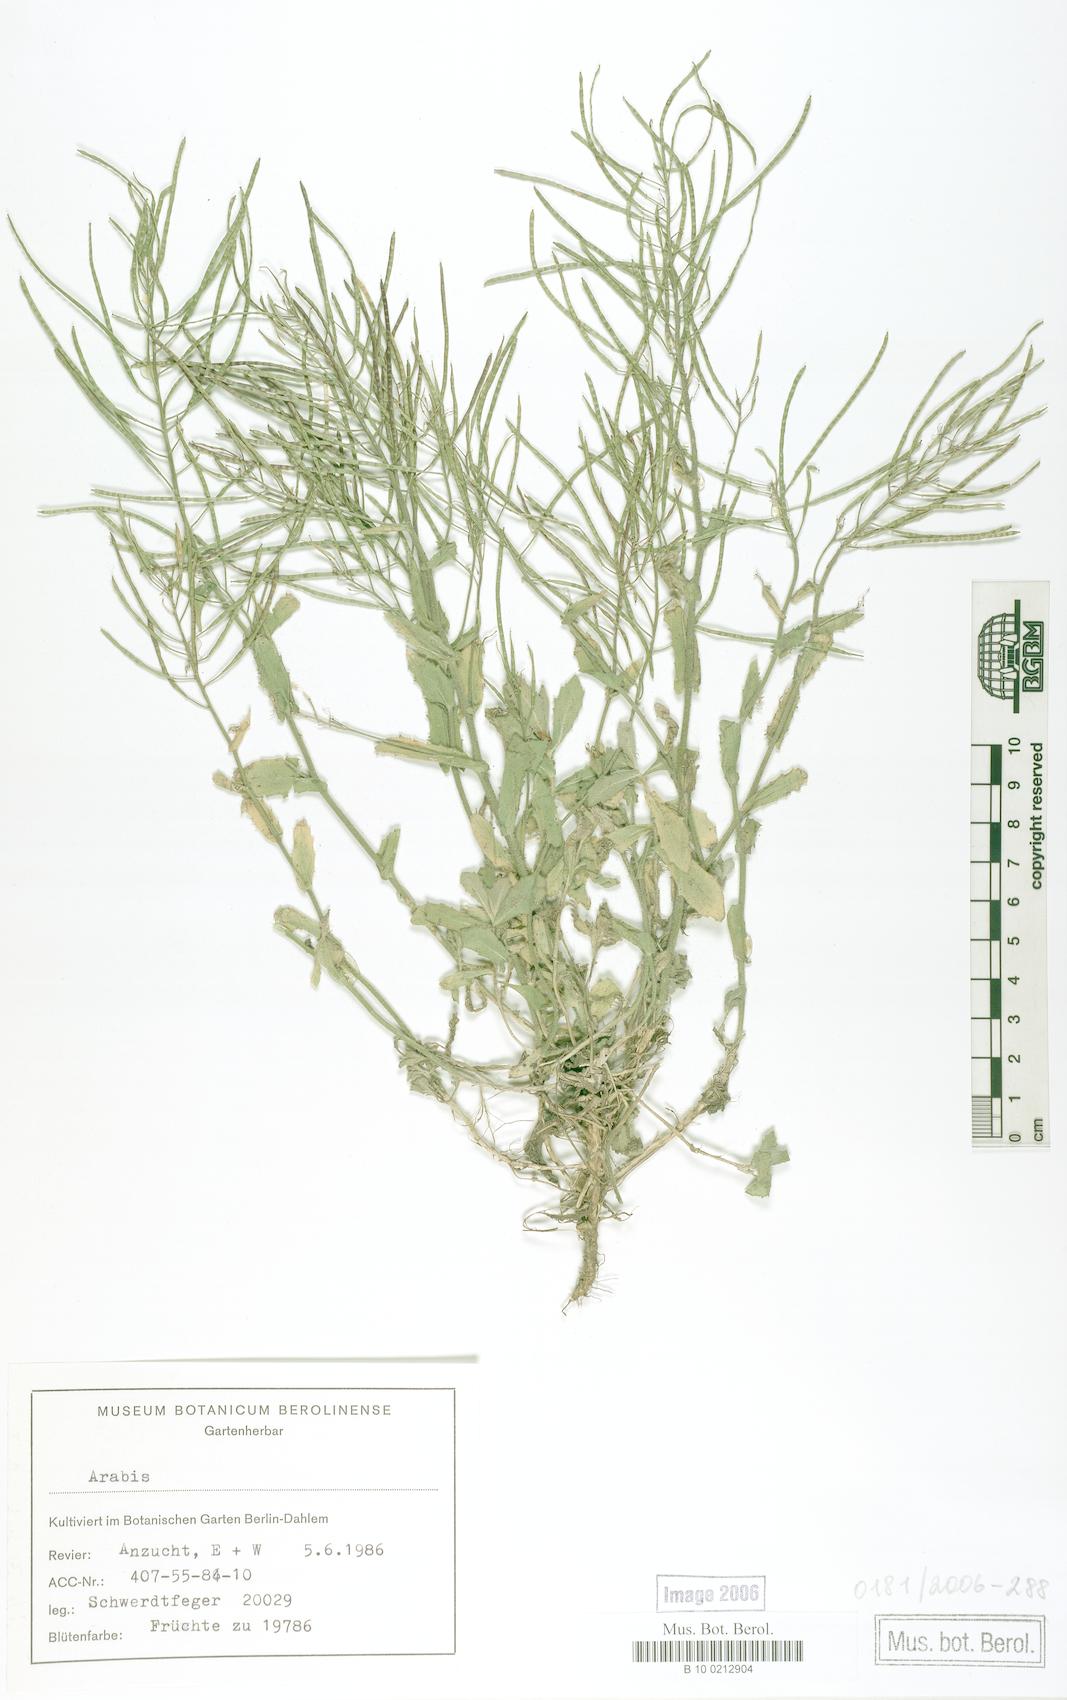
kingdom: Plantae
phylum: Tracheophyta
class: Magnoliopsida
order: Brassicales
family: Brassicaceae
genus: Arabis
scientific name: Arabis caucasica
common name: Gray rockcress
